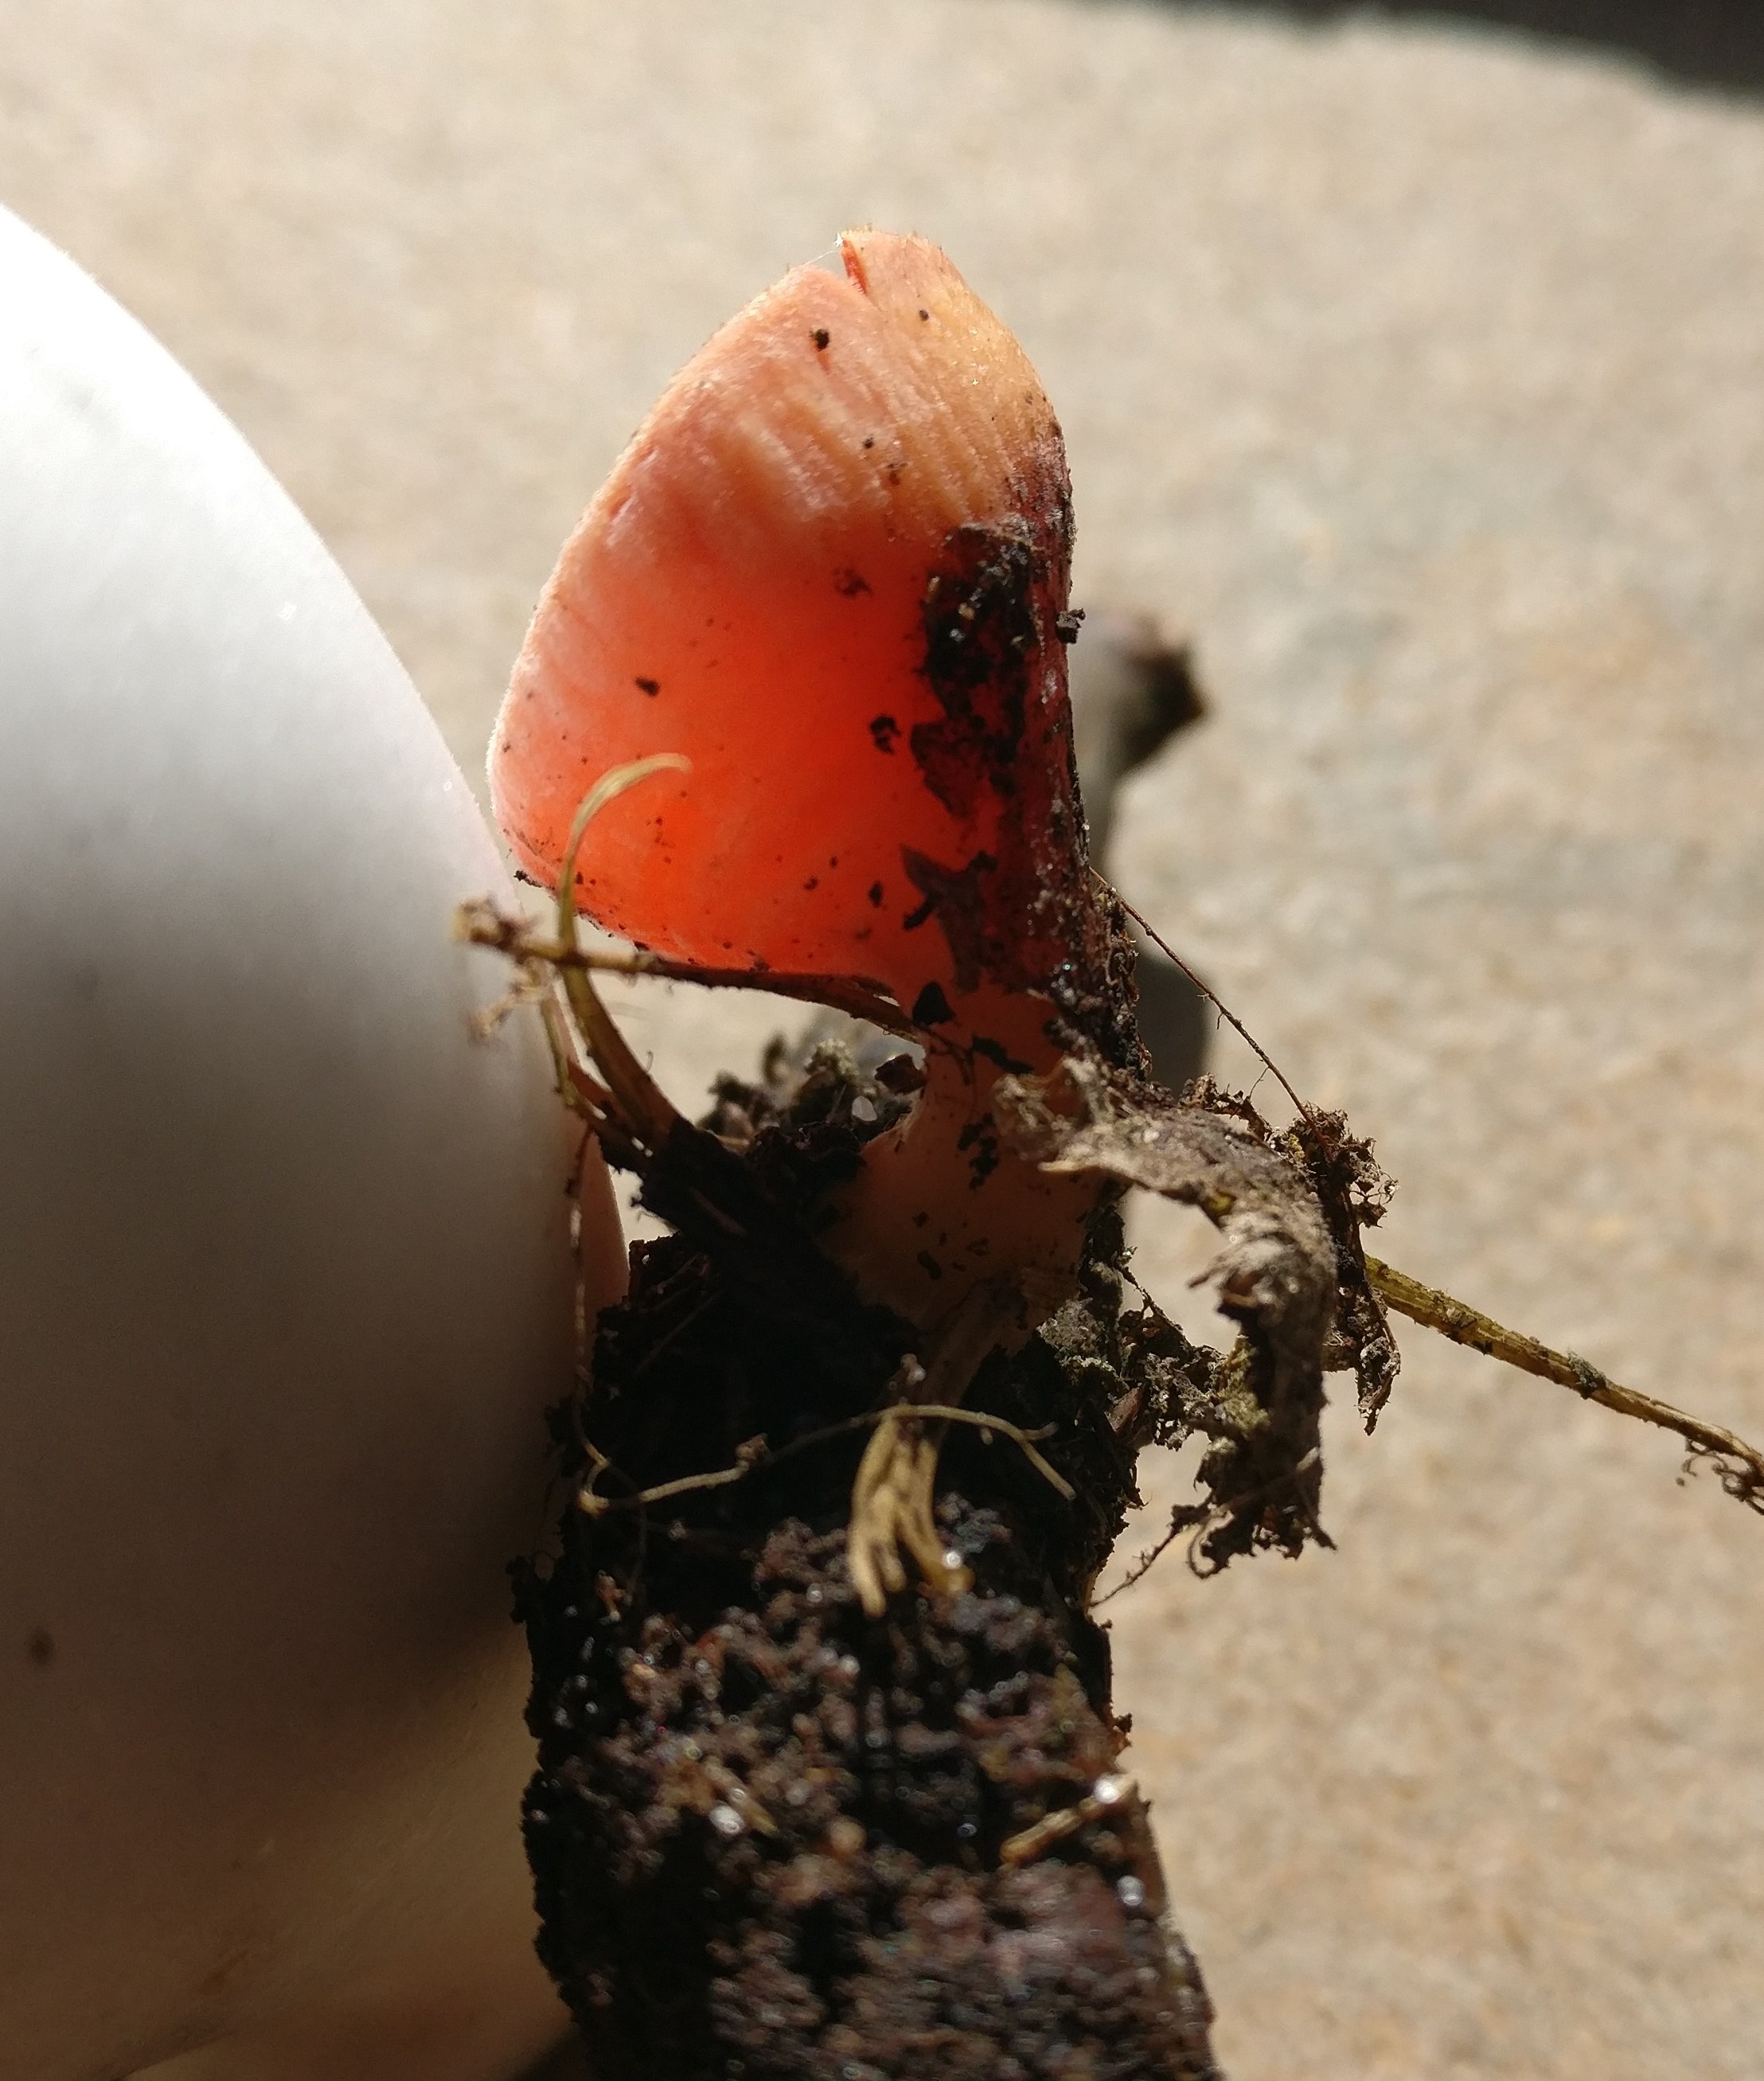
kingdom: Fungi
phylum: Ascomycota
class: Pezizomycetes
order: Pezizales
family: Sarcoscyphaceae
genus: Sarcoscypha
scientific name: Sarcoscypha austriaca
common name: krølhåret pragtbæger
